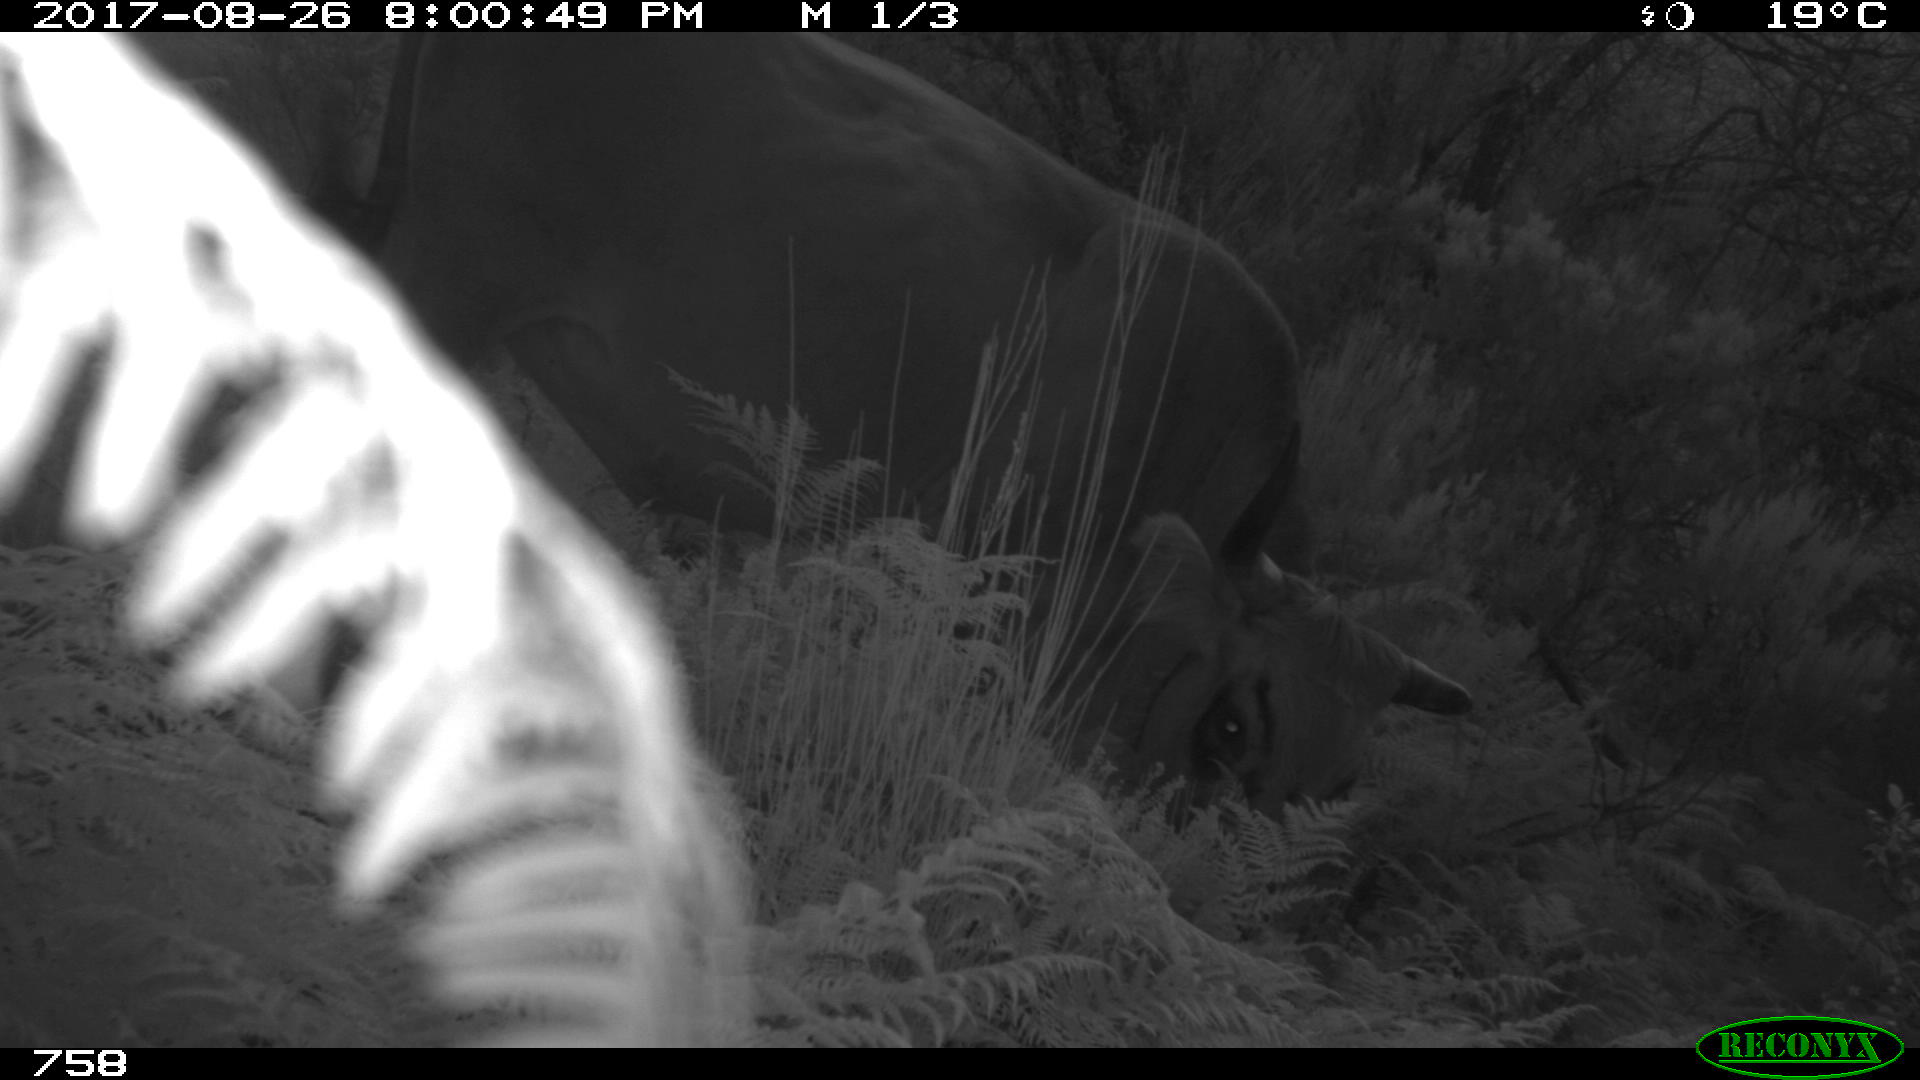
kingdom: Animalia
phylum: Chordata
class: Mammalia
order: Artiodactyla
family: Bovidae
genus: Bos
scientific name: Bos taurus
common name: Domesticated cattle
